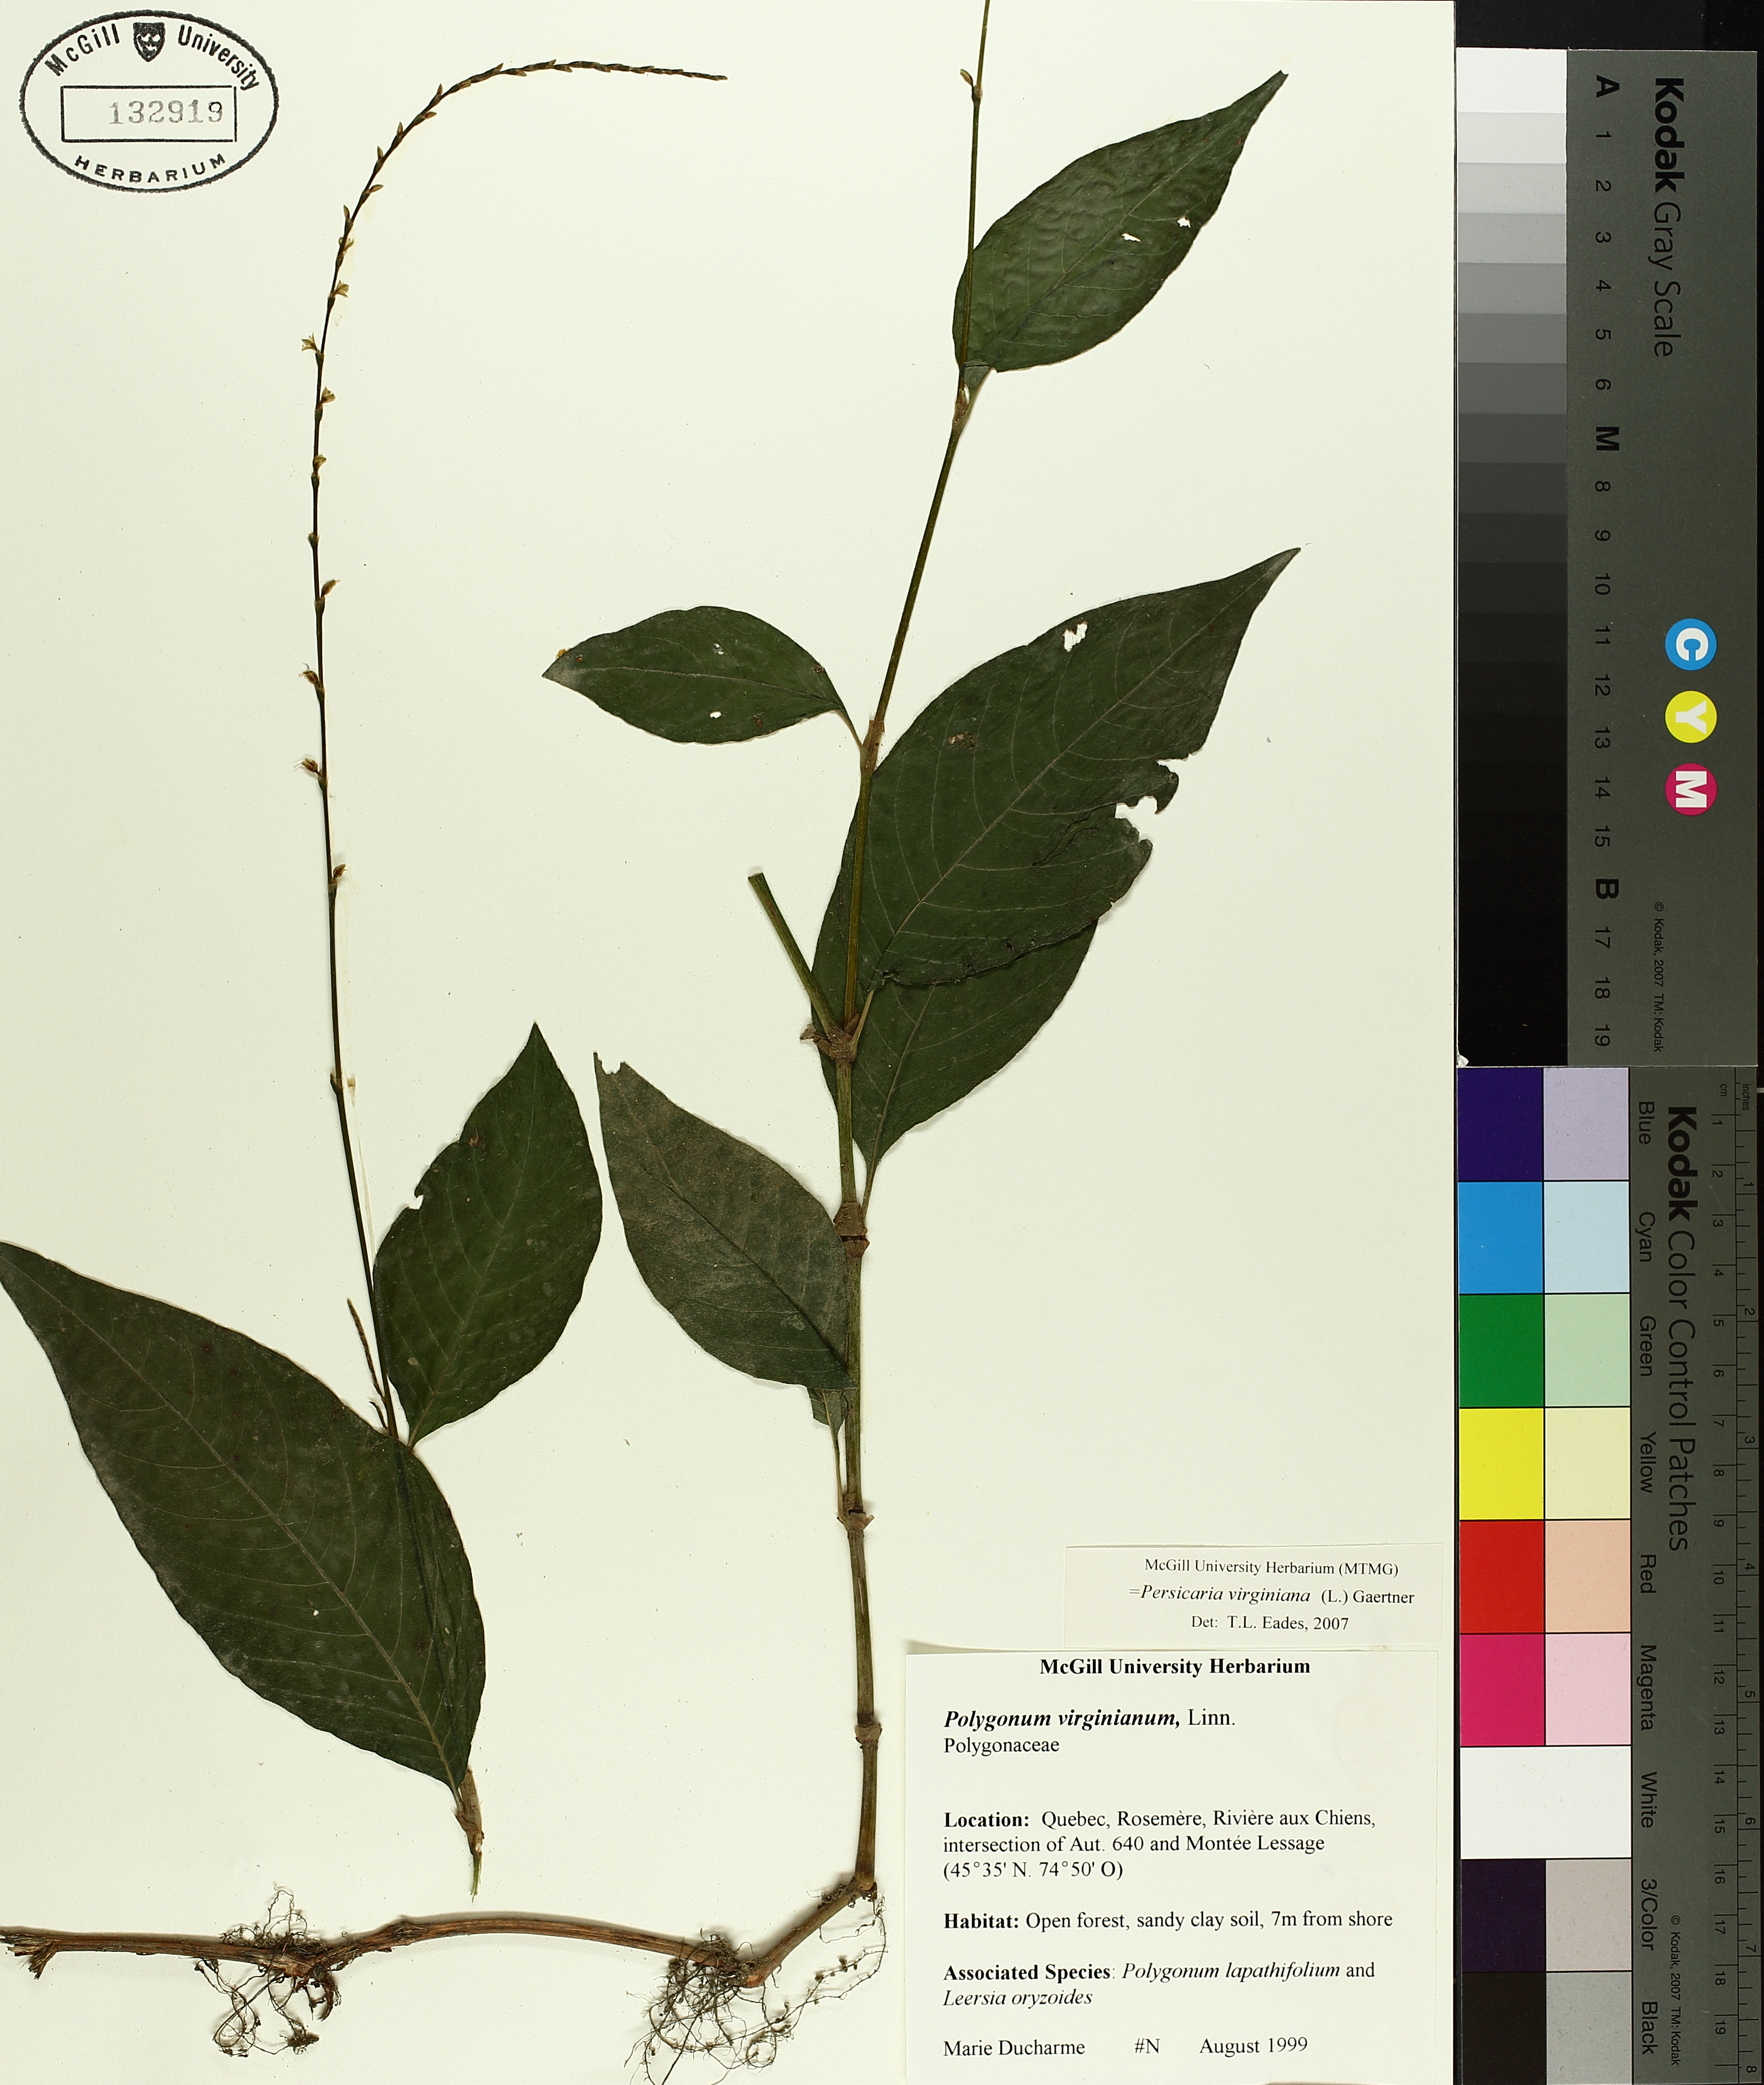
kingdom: Plantae
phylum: Tracheophyta
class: Magnoliopsida
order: Caryophyllales
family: Polygonaceae
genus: Persicaria
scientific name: Persicaria virginiana
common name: Jumpseed
